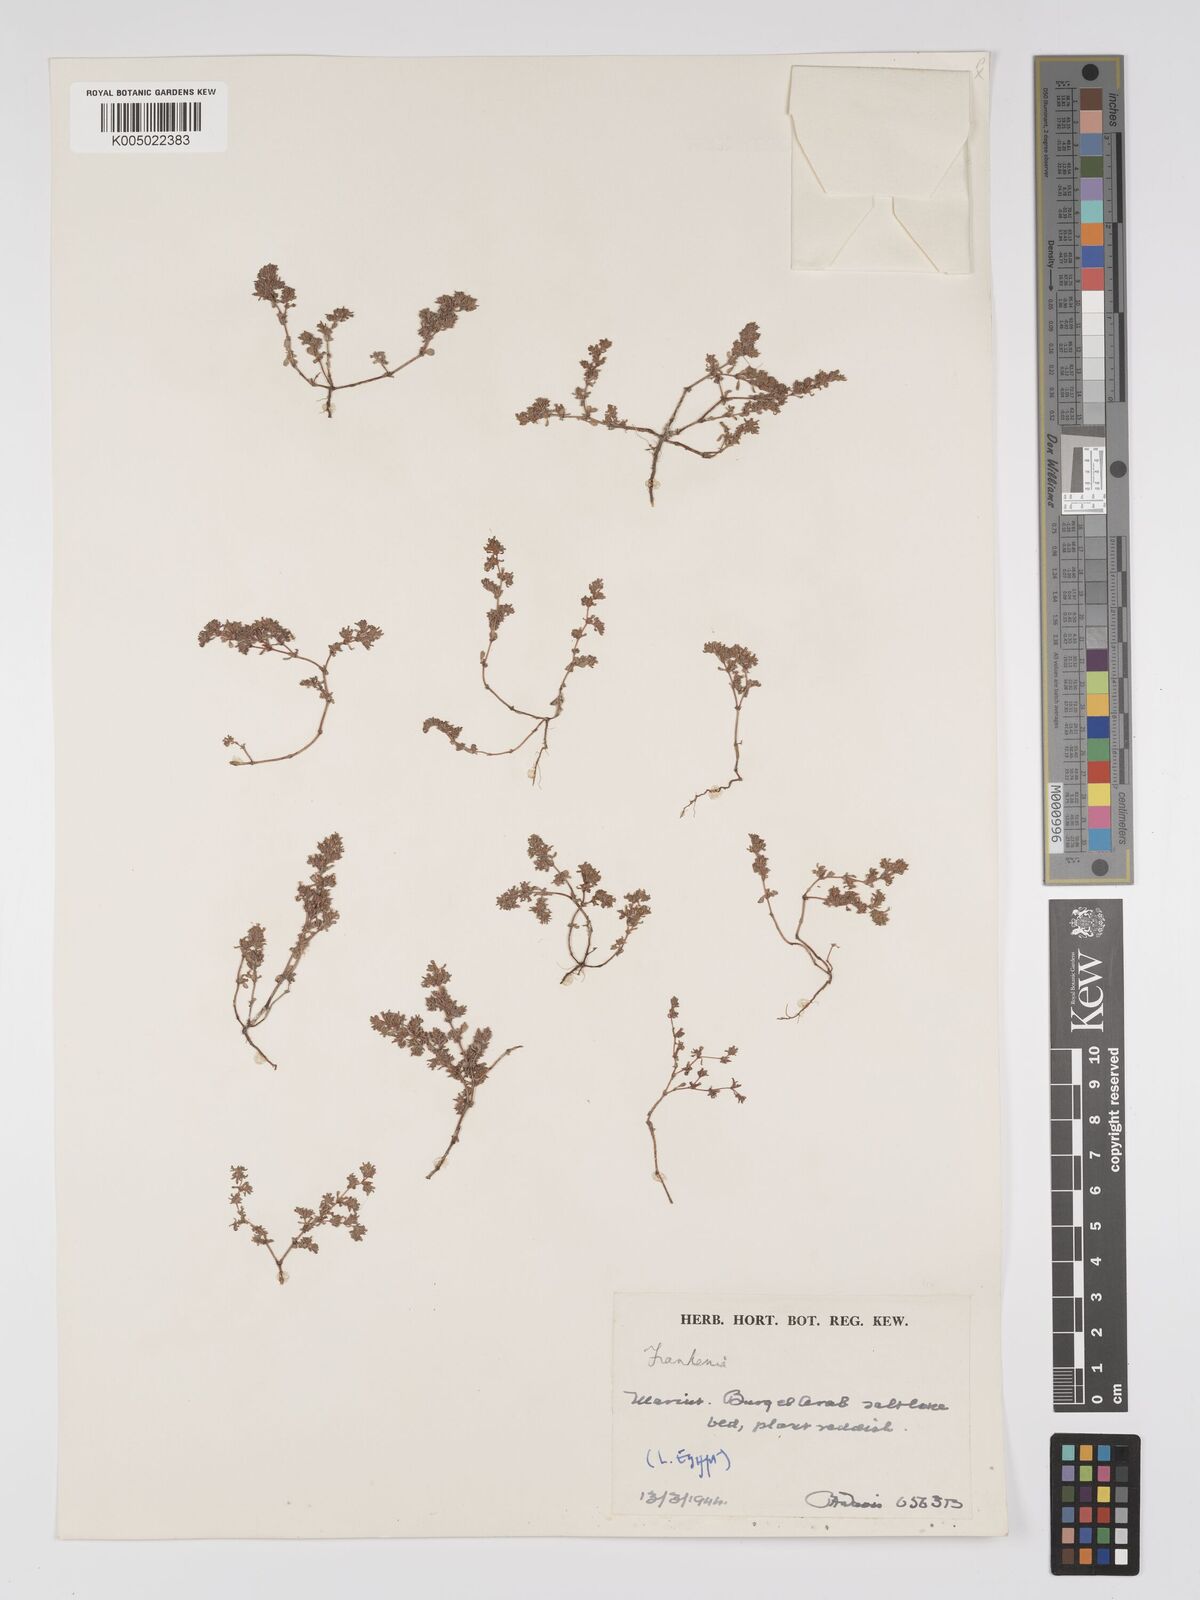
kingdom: Plantae
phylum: Tracheophyta
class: Magnoliopsida
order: Caryophyllales
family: Frankeniaceae
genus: Frankenia
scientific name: Frankenia pulverulenta
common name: European seaheath
